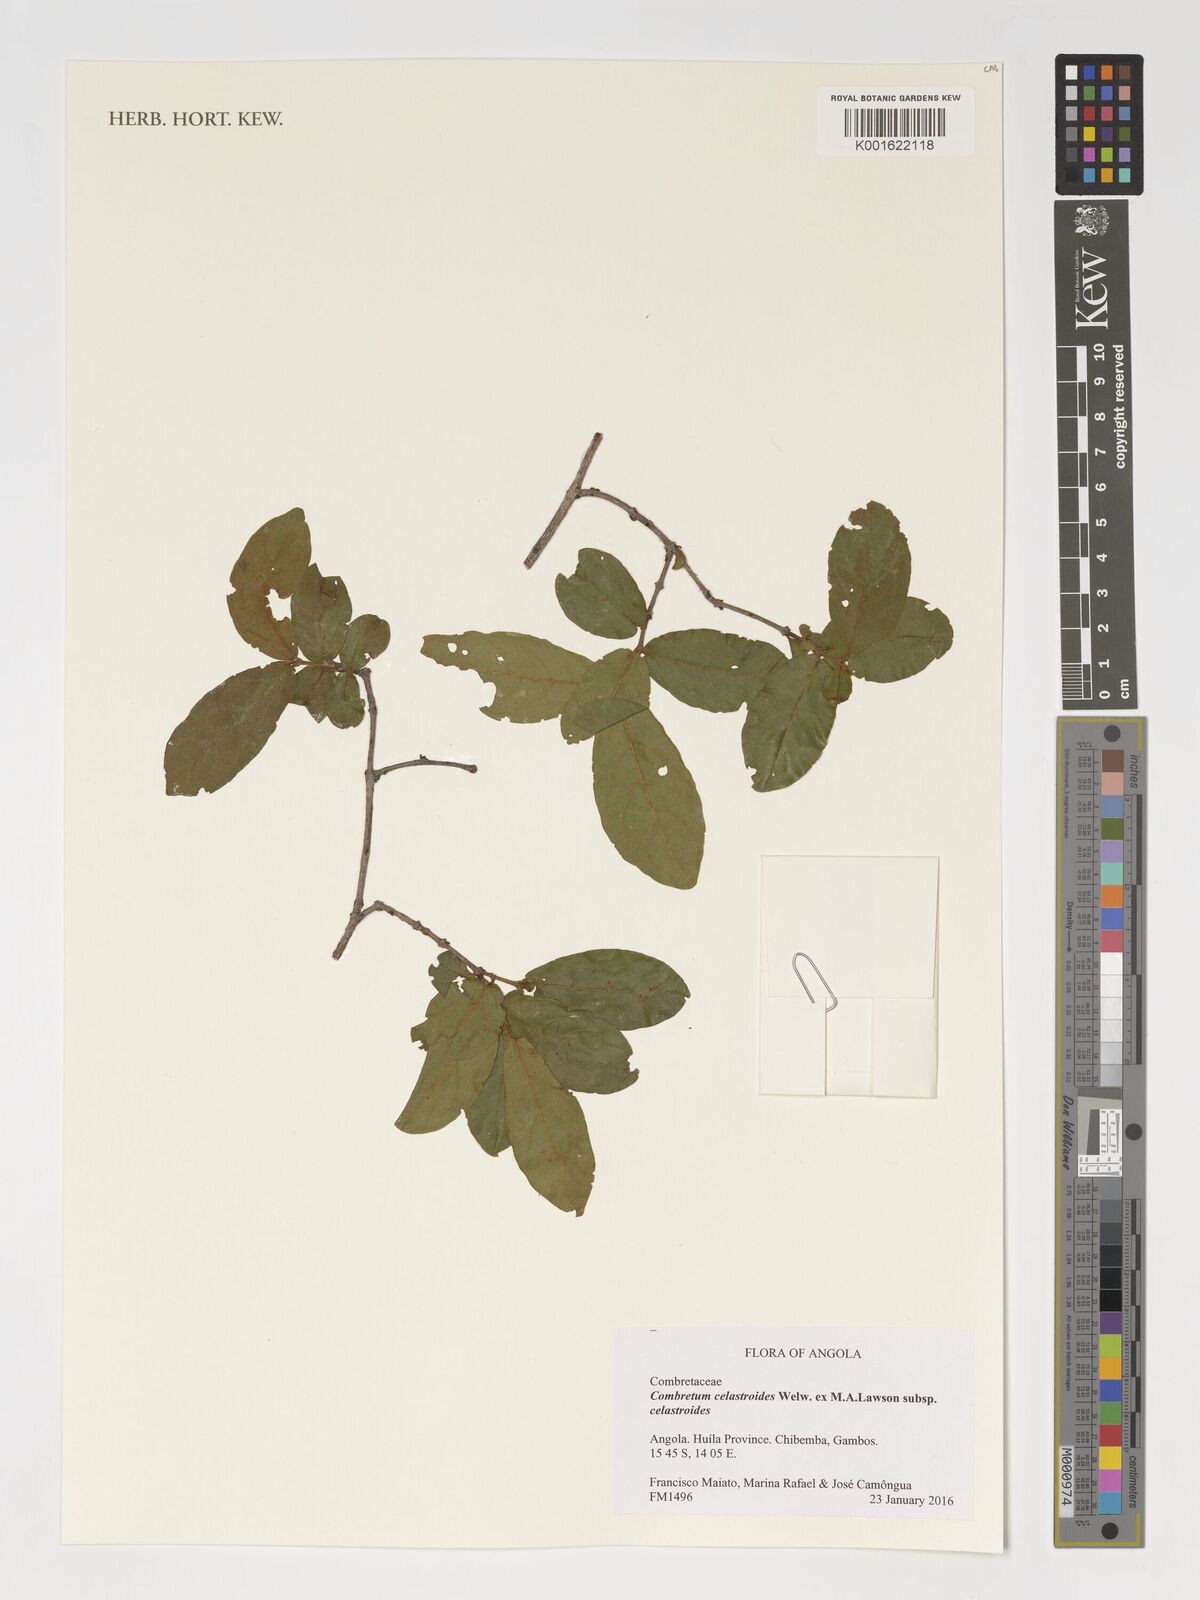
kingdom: Plantae
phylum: Tracheophyta
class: Magnoliopsida
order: Myrtales
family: Combretaceae
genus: Combretum
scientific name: Combretum celastroides
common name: Jesse-bush combretum
